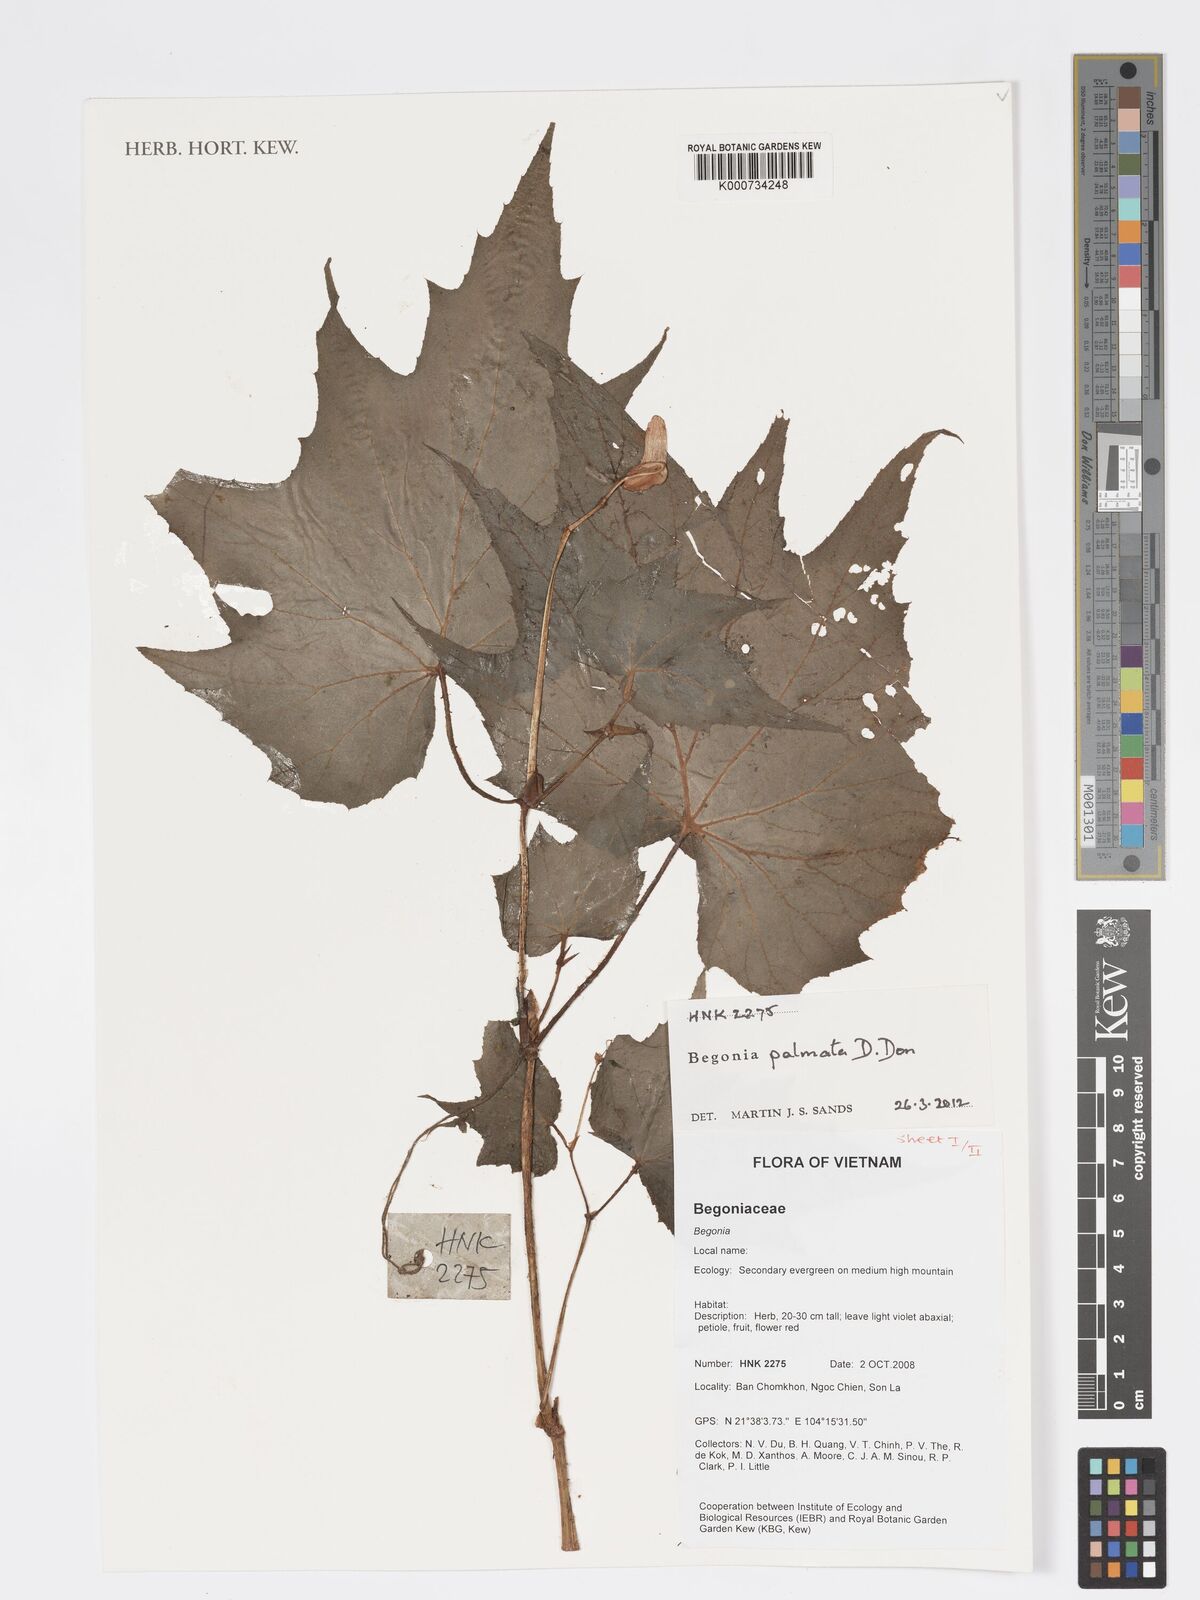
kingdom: Plantae
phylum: Tracheophyta
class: Magnoliopsida
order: Cucurbitales
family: Begoniaceae
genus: Begonia
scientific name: Begonia palmata
